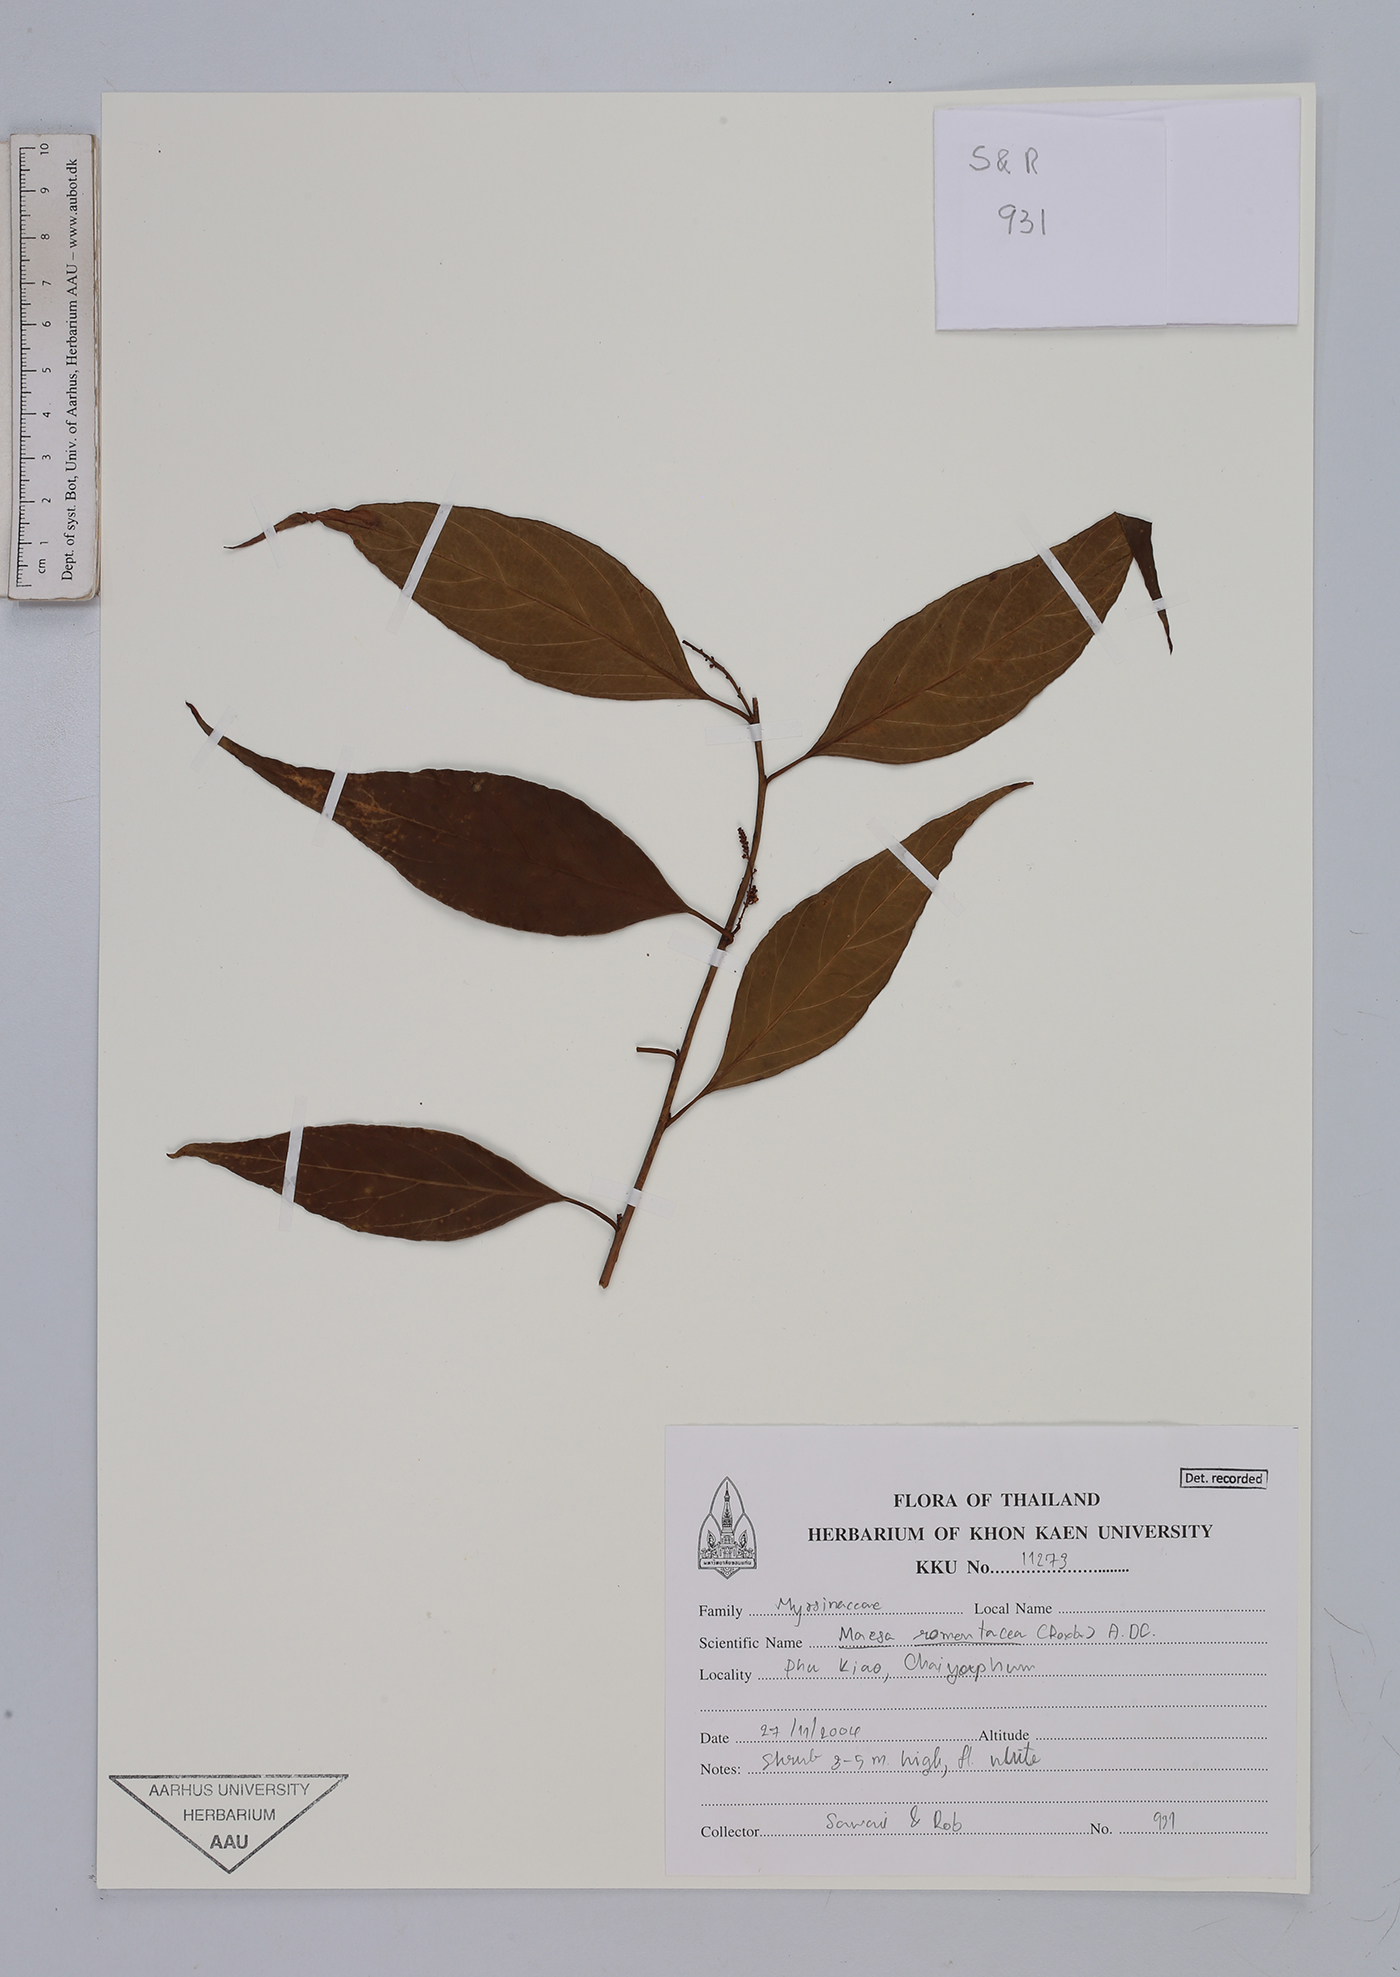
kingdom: Plantae
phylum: Tracheophyta
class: Magnoliopsida
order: Ericales
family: Primulaceae
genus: Maesa
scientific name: Maesa ramentacea
